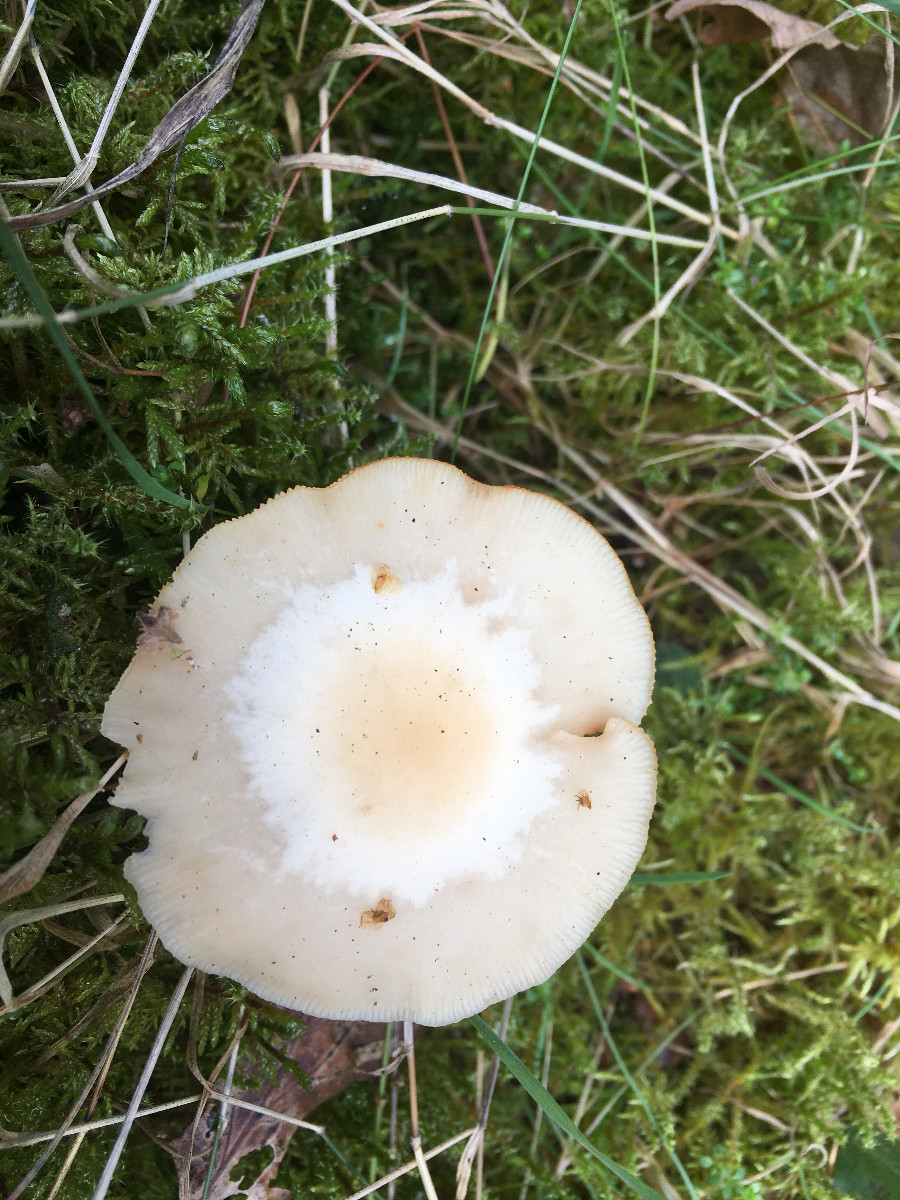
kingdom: Fungi
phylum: Basidiomycota
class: Agaricomycetes
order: Agaricales
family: Omphalotaceae
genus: Gymnopus
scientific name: Gymnopus
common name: fladhat
